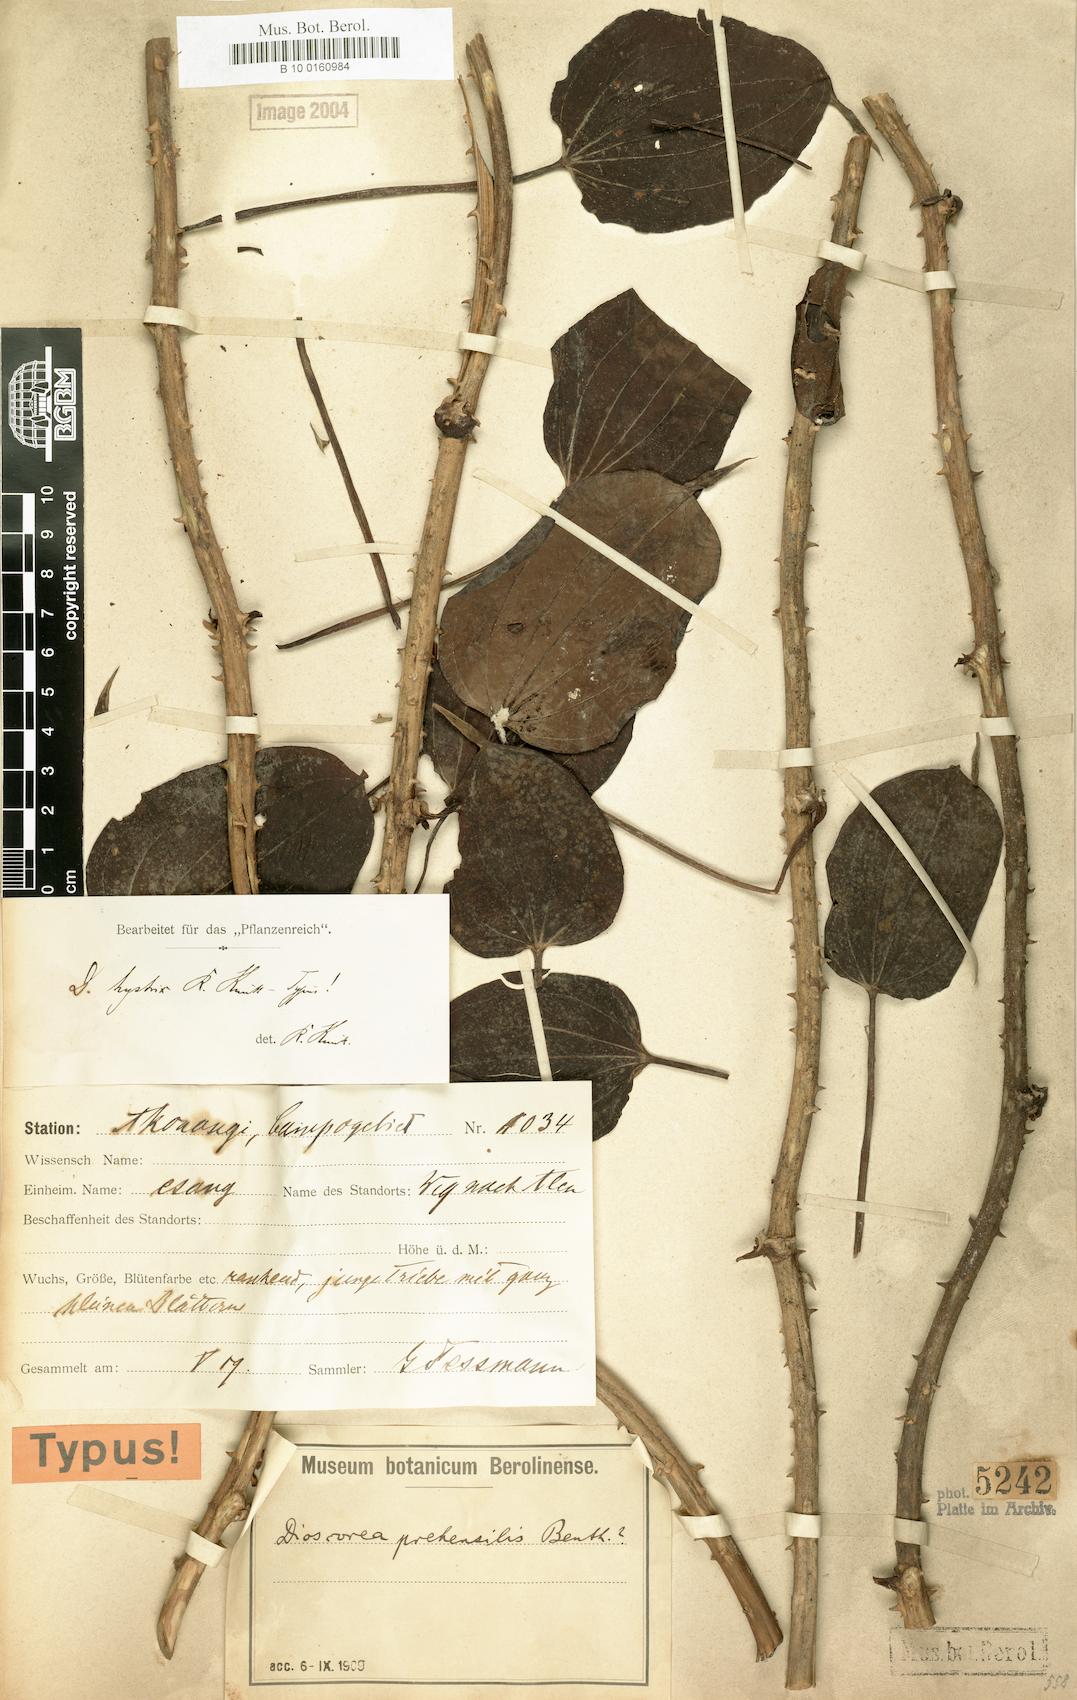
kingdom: Plantae
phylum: Tracheophyta
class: Liliopsida
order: Dioscoreales
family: Dioscoreaceae
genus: Dioscorea
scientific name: Dioscorea minutiflora
